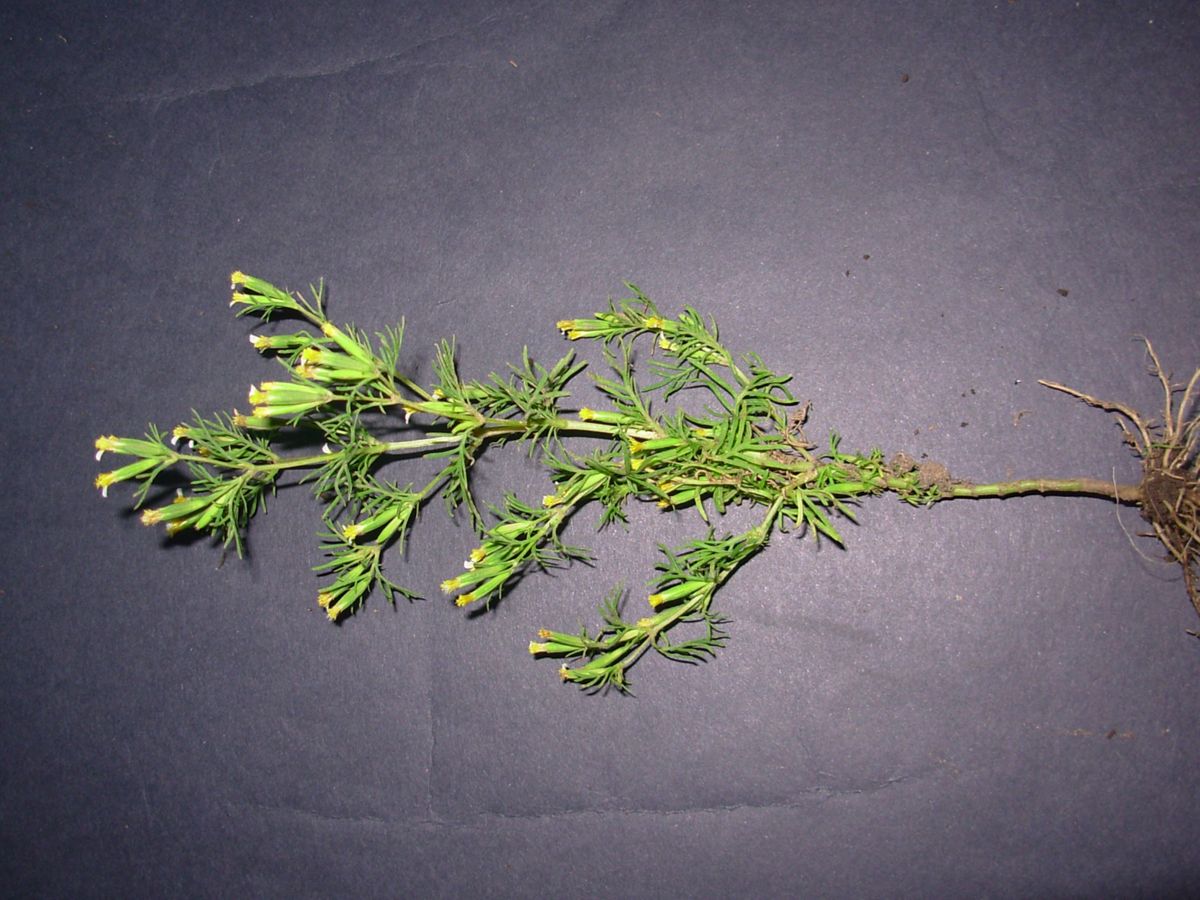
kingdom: Plantae
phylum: Tracheophyta
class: Magnoliopsida
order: Asterales
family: Asteraceae
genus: Tagetes
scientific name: Tagetes filifolia
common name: Lesser marigold
